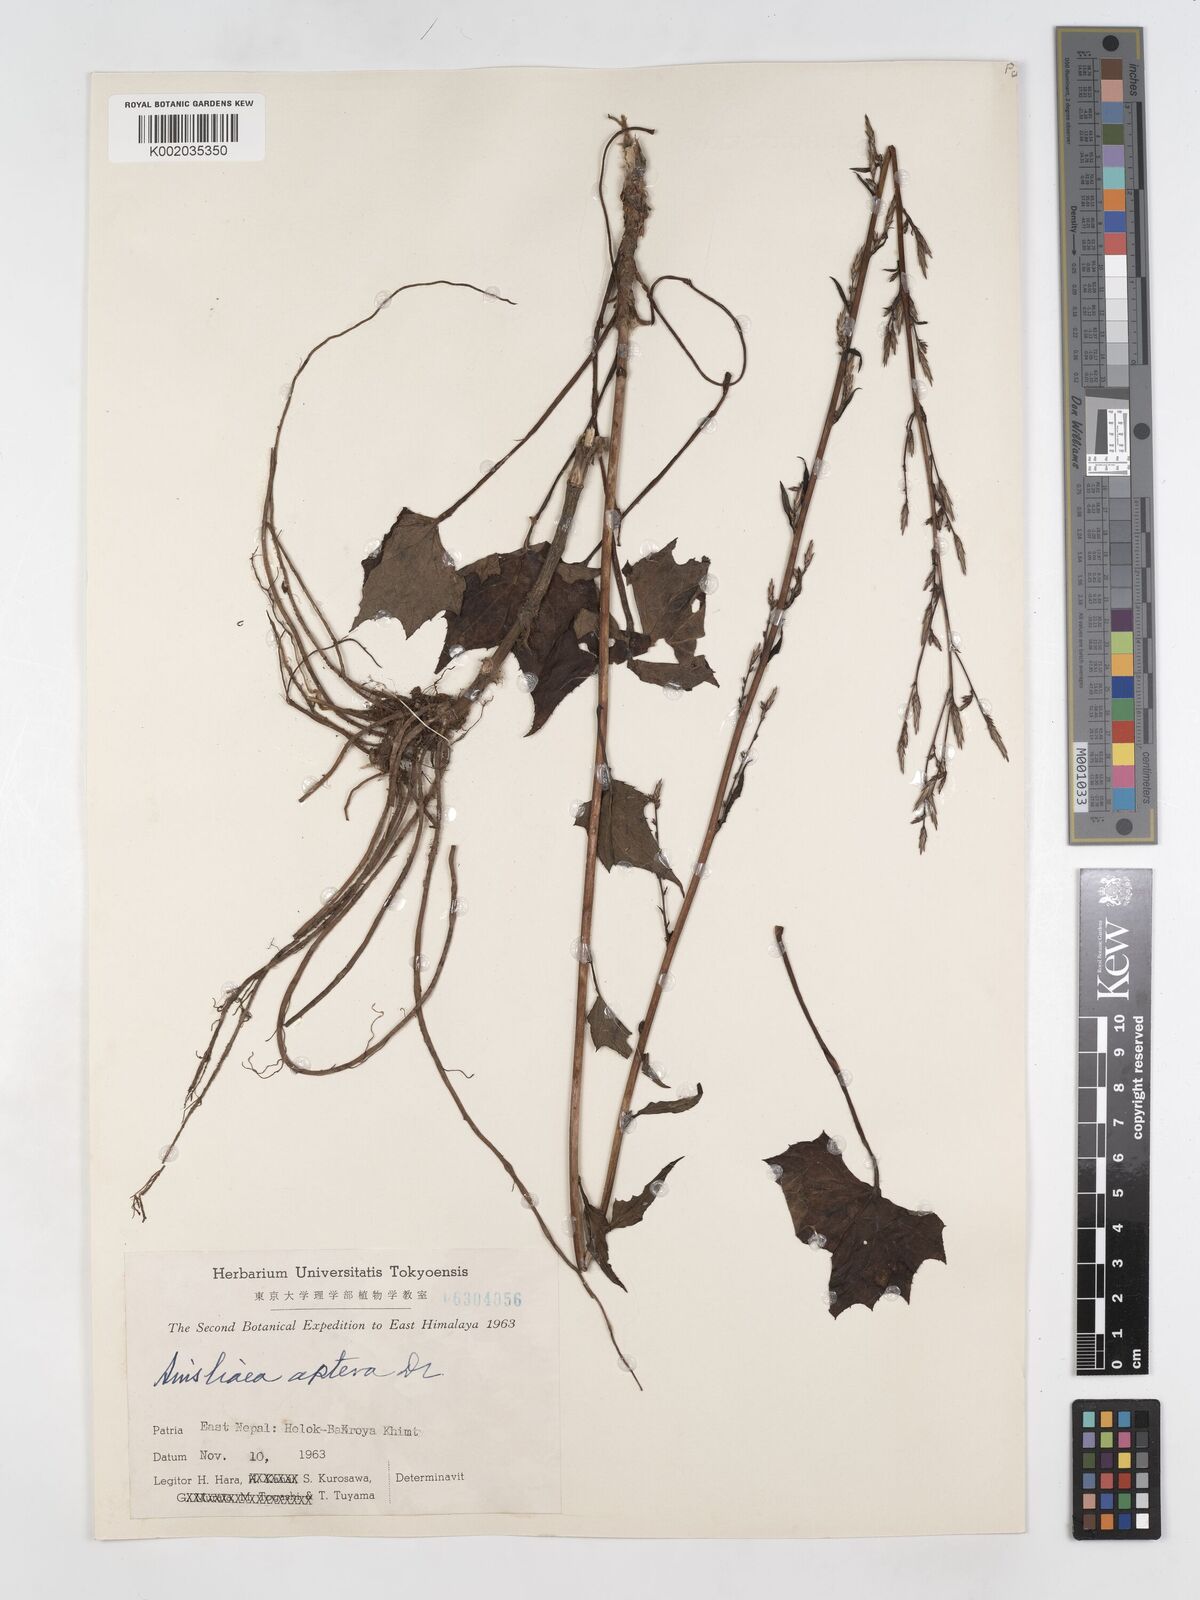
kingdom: Plantae
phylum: Tracheophyta
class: Magnoliopsida
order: Asterales
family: Asteraceae
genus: Ainsliaea
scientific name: Ainsliaea aptera
